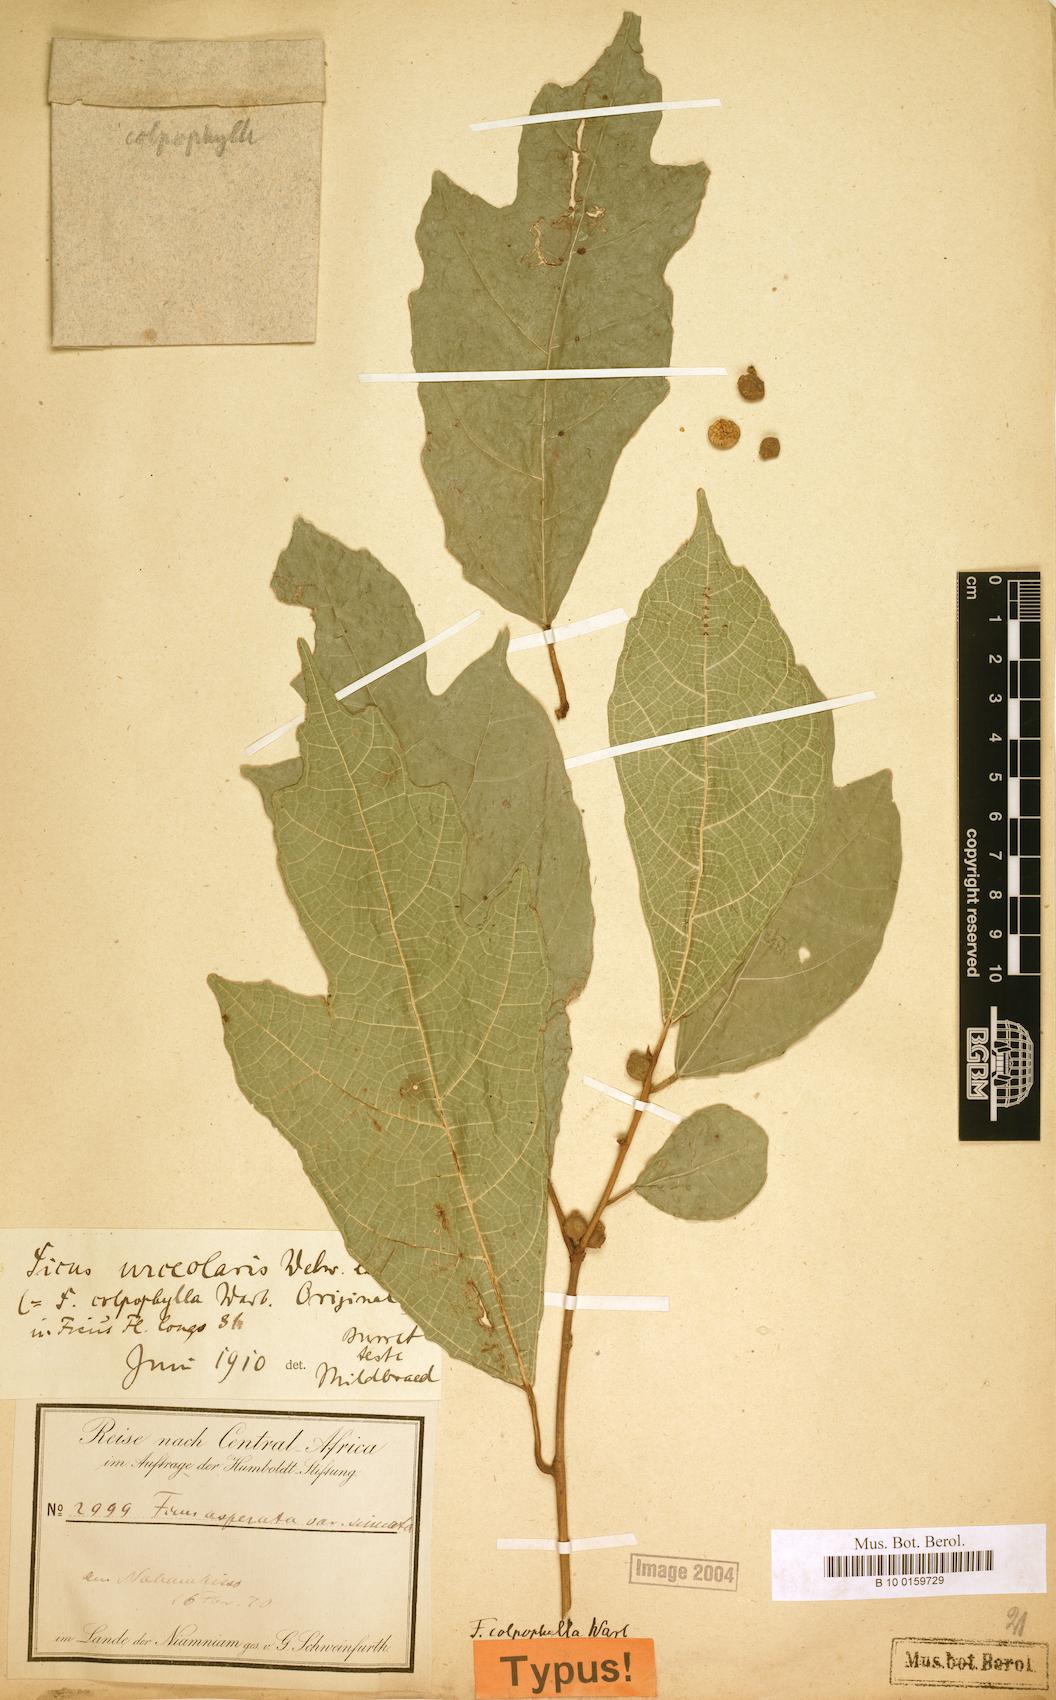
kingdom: Plantae
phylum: Tracheophyta
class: Magnoliopsida
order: Rosales
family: Moraceae
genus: Ficus
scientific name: Ficus asperifolia
